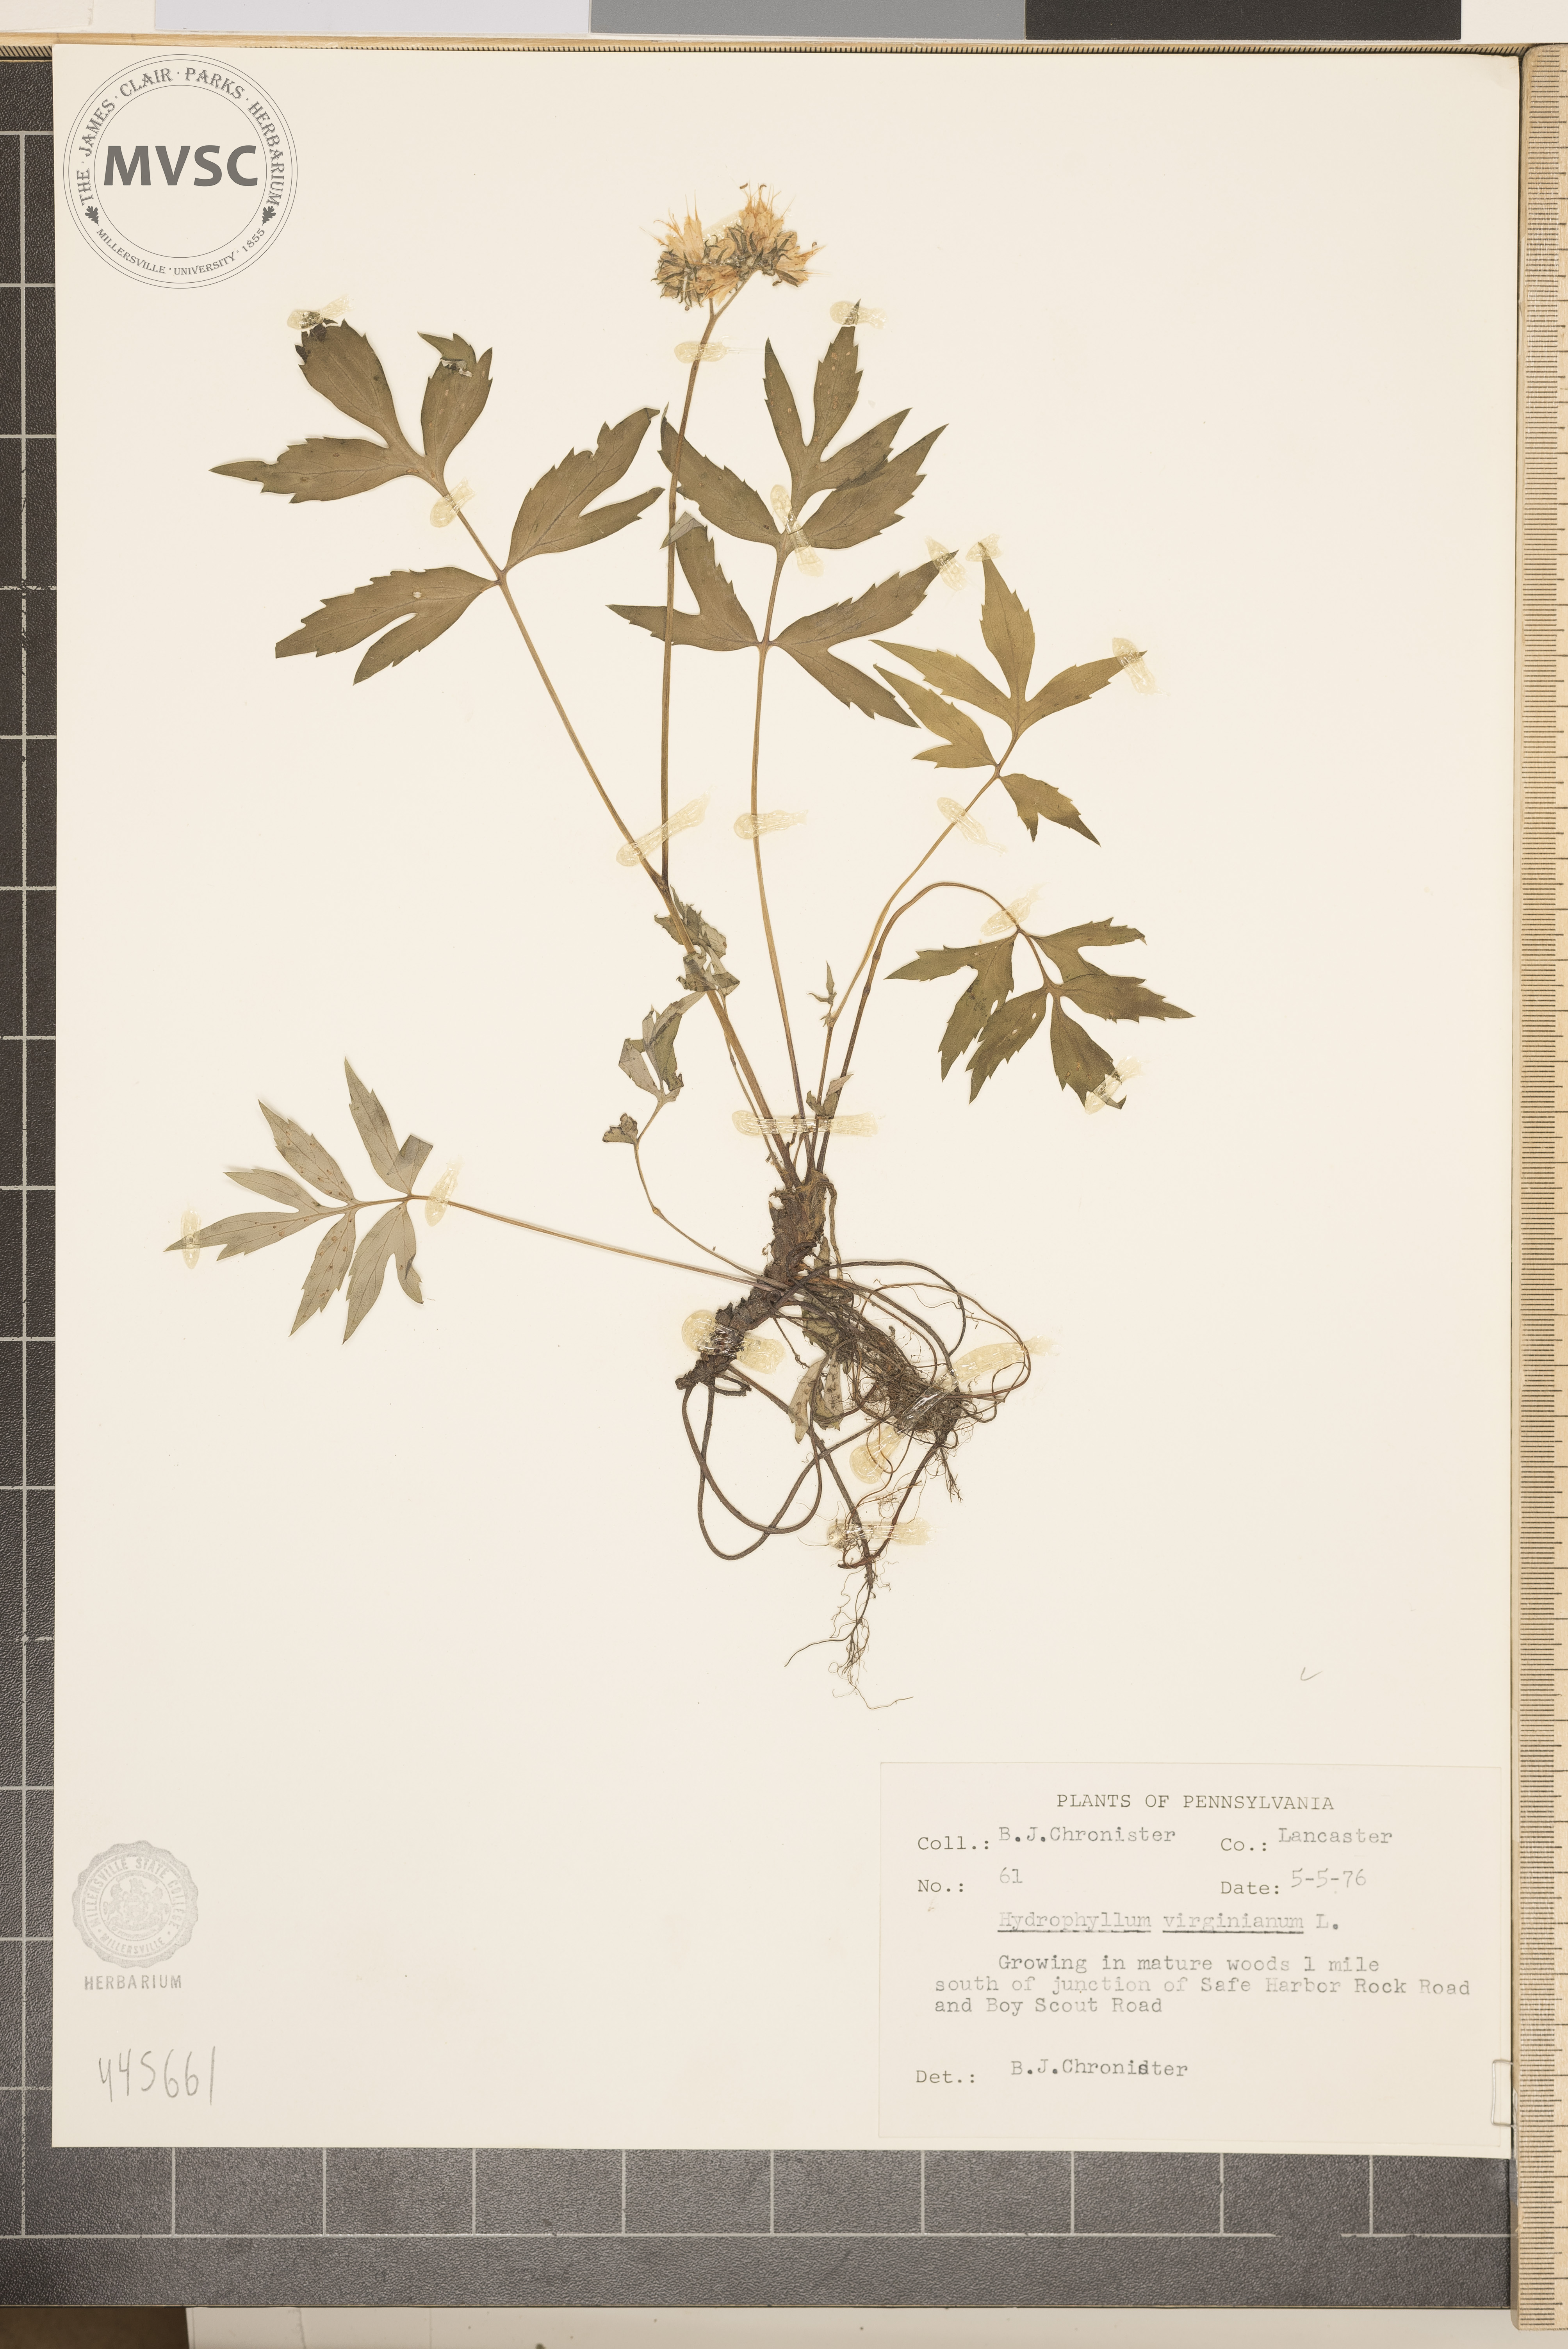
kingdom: Plantae
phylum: Tracheophyta
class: Magnoliopsida
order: Boraginales
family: Hydrophyllaceae
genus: Hydrophyllum
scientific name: Hydrophyllum virginianum
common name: Virginia waterleaf
